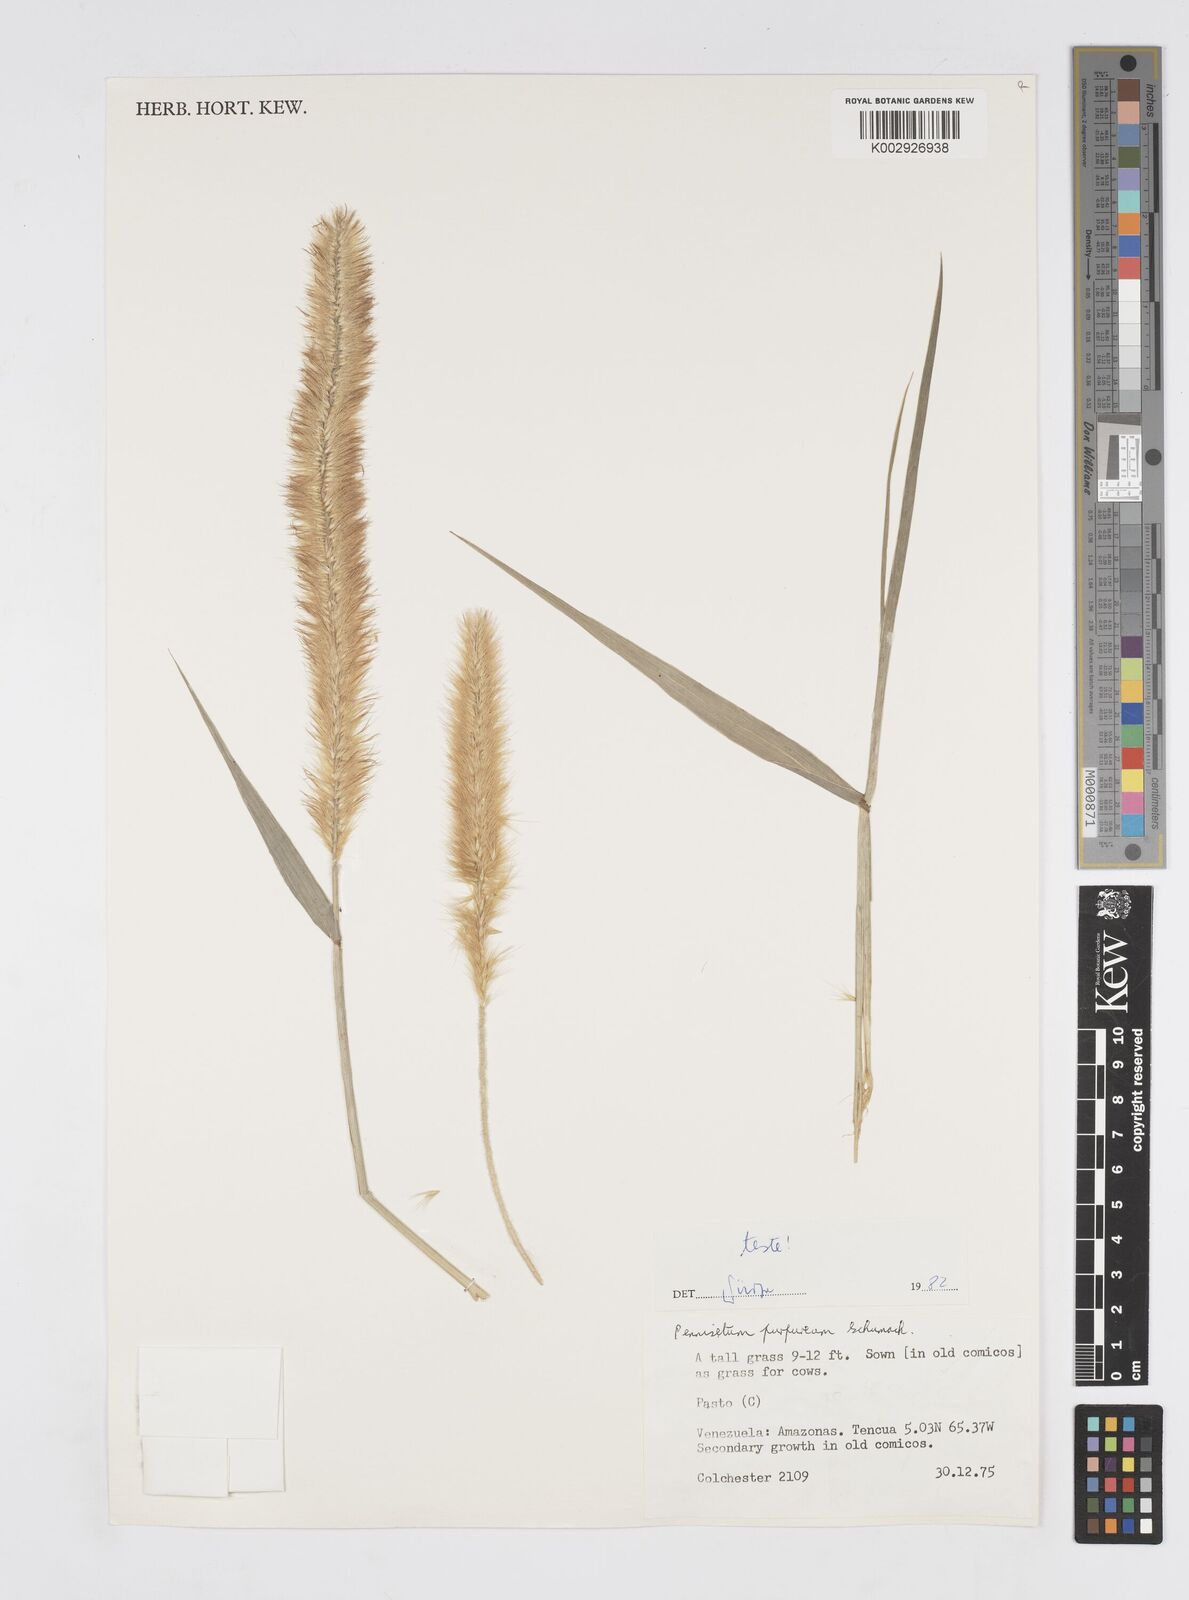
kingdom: Plantae
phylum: Tracheophyta
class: Liliopsida
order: Poales
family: Poaceae
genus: Cenchrus
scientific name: Cenchrus purpureus
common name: Elephant grass
